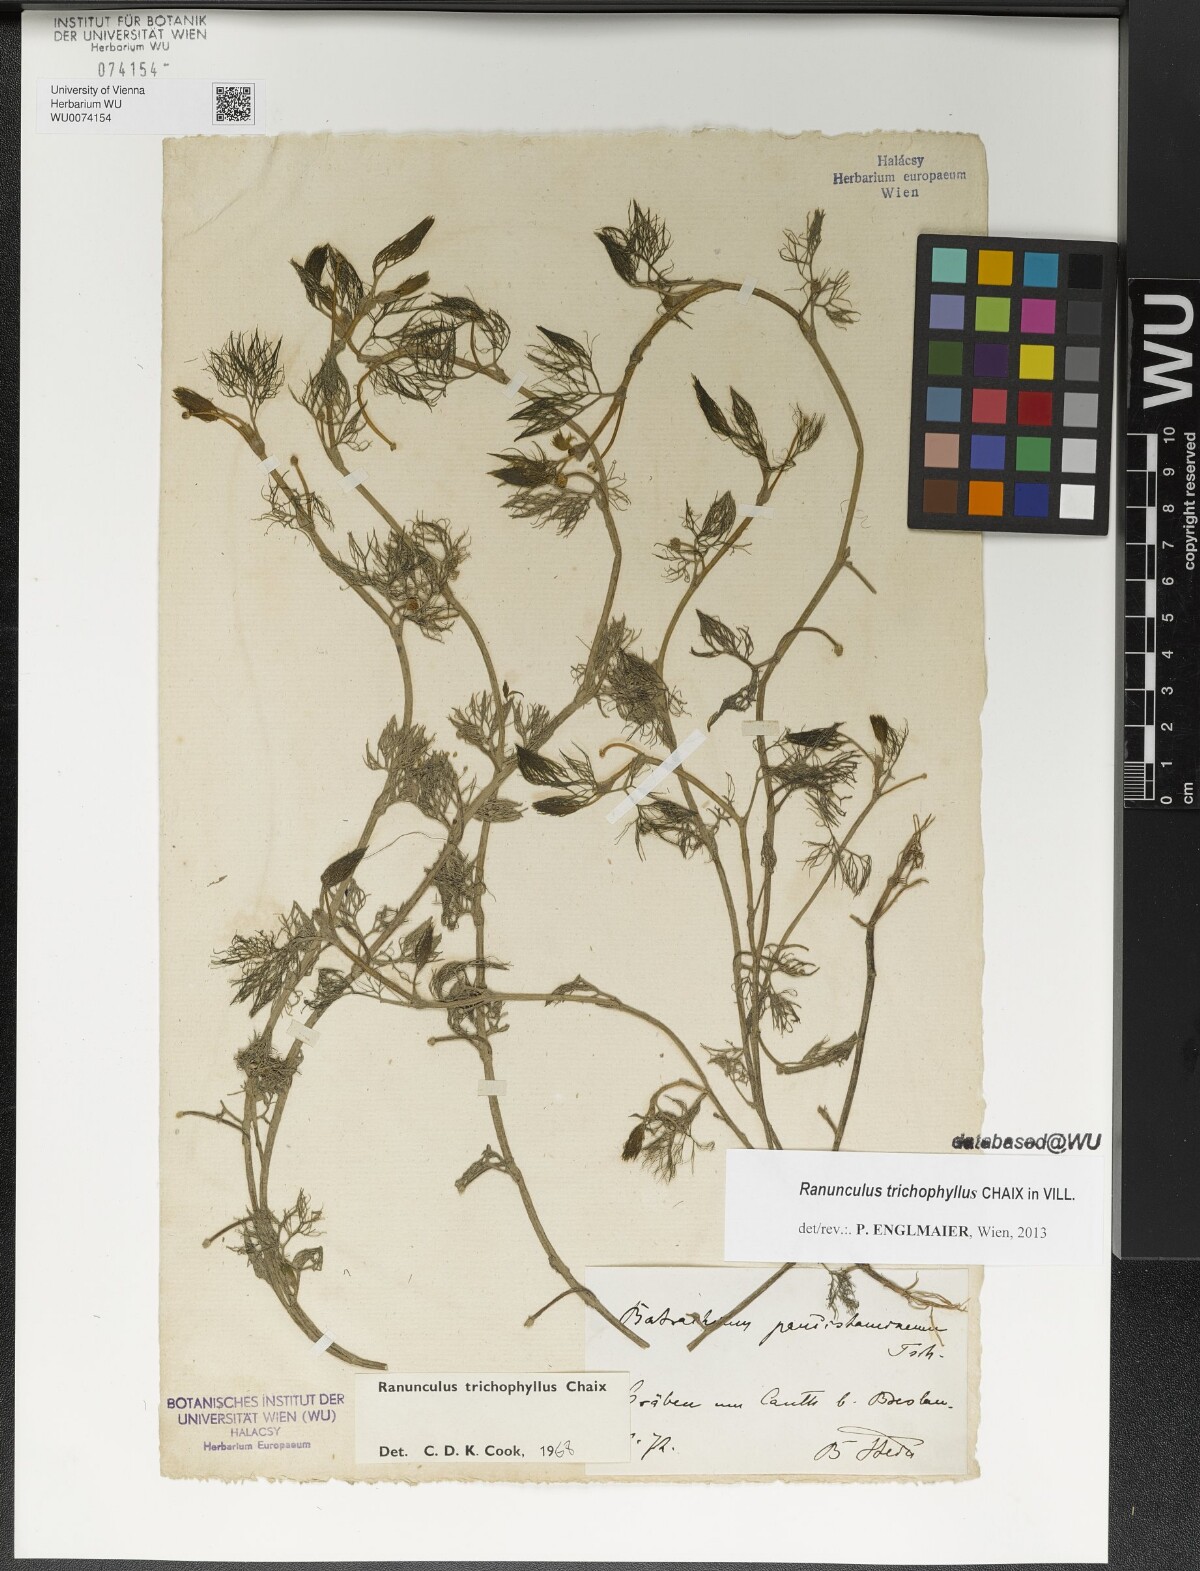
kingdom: Plantae
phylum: Tracheophyta
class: Magnoliopsida
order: Ranunculales
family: Ranunculaceae
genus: Ranunculus
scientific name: Ranunculus trichophyllus
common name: Thread-leaved water-crowfoot
